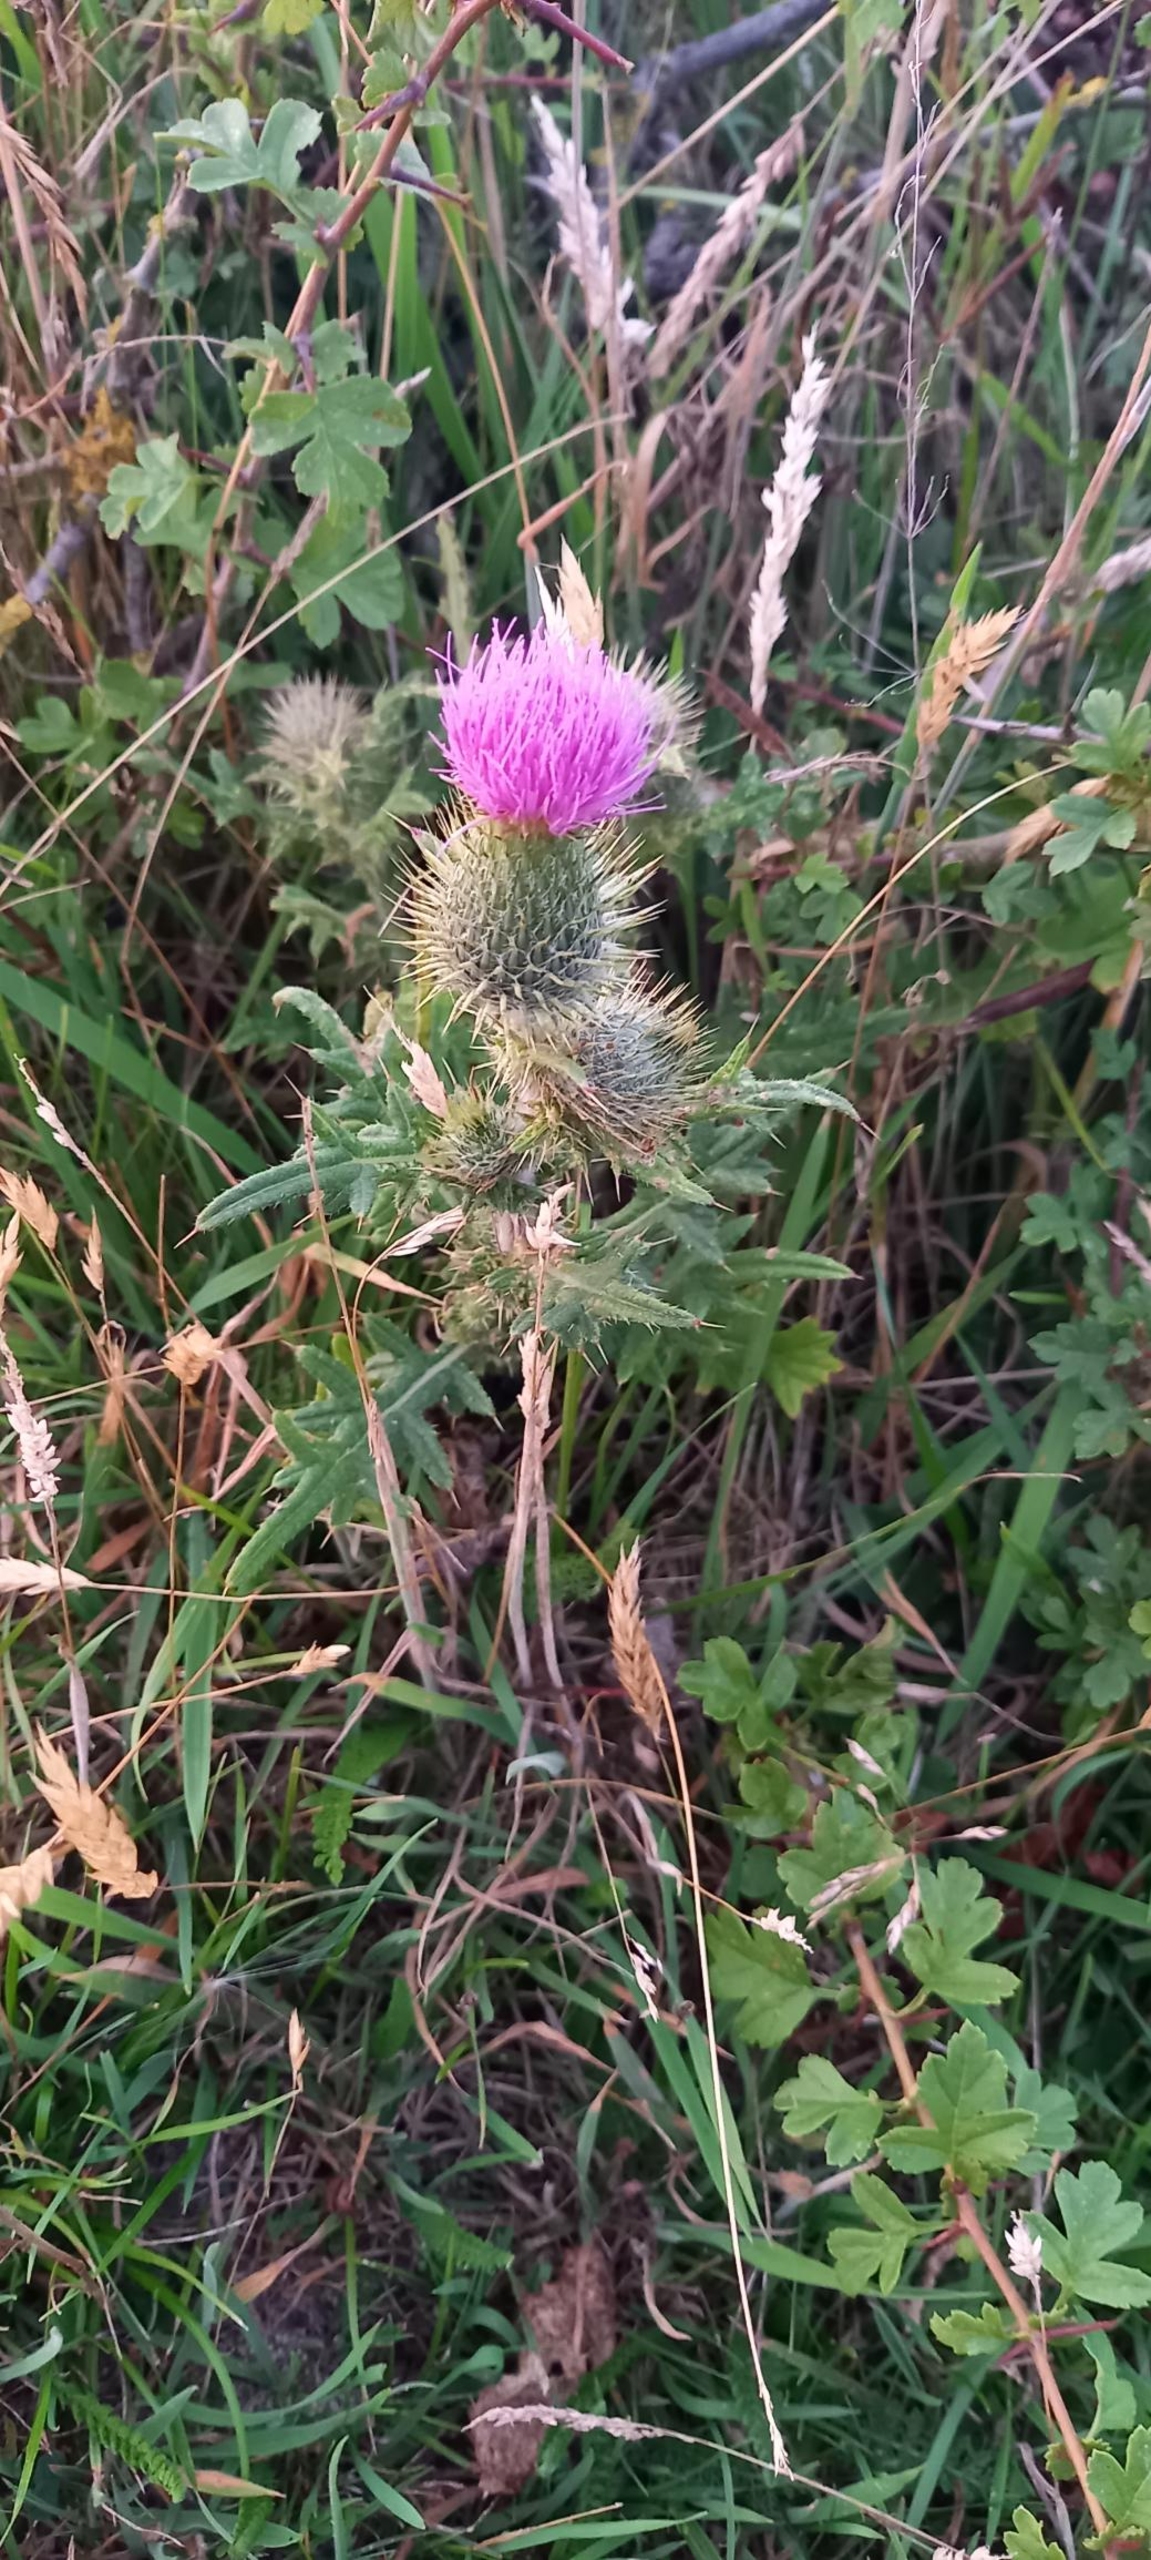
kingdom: Plantae
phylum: Tracheophyta
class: Magnoliopsida
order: Asterales
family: Asteraceae
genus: Cirsium
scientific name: Cirsium vulgare
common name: Horse-tidsel
